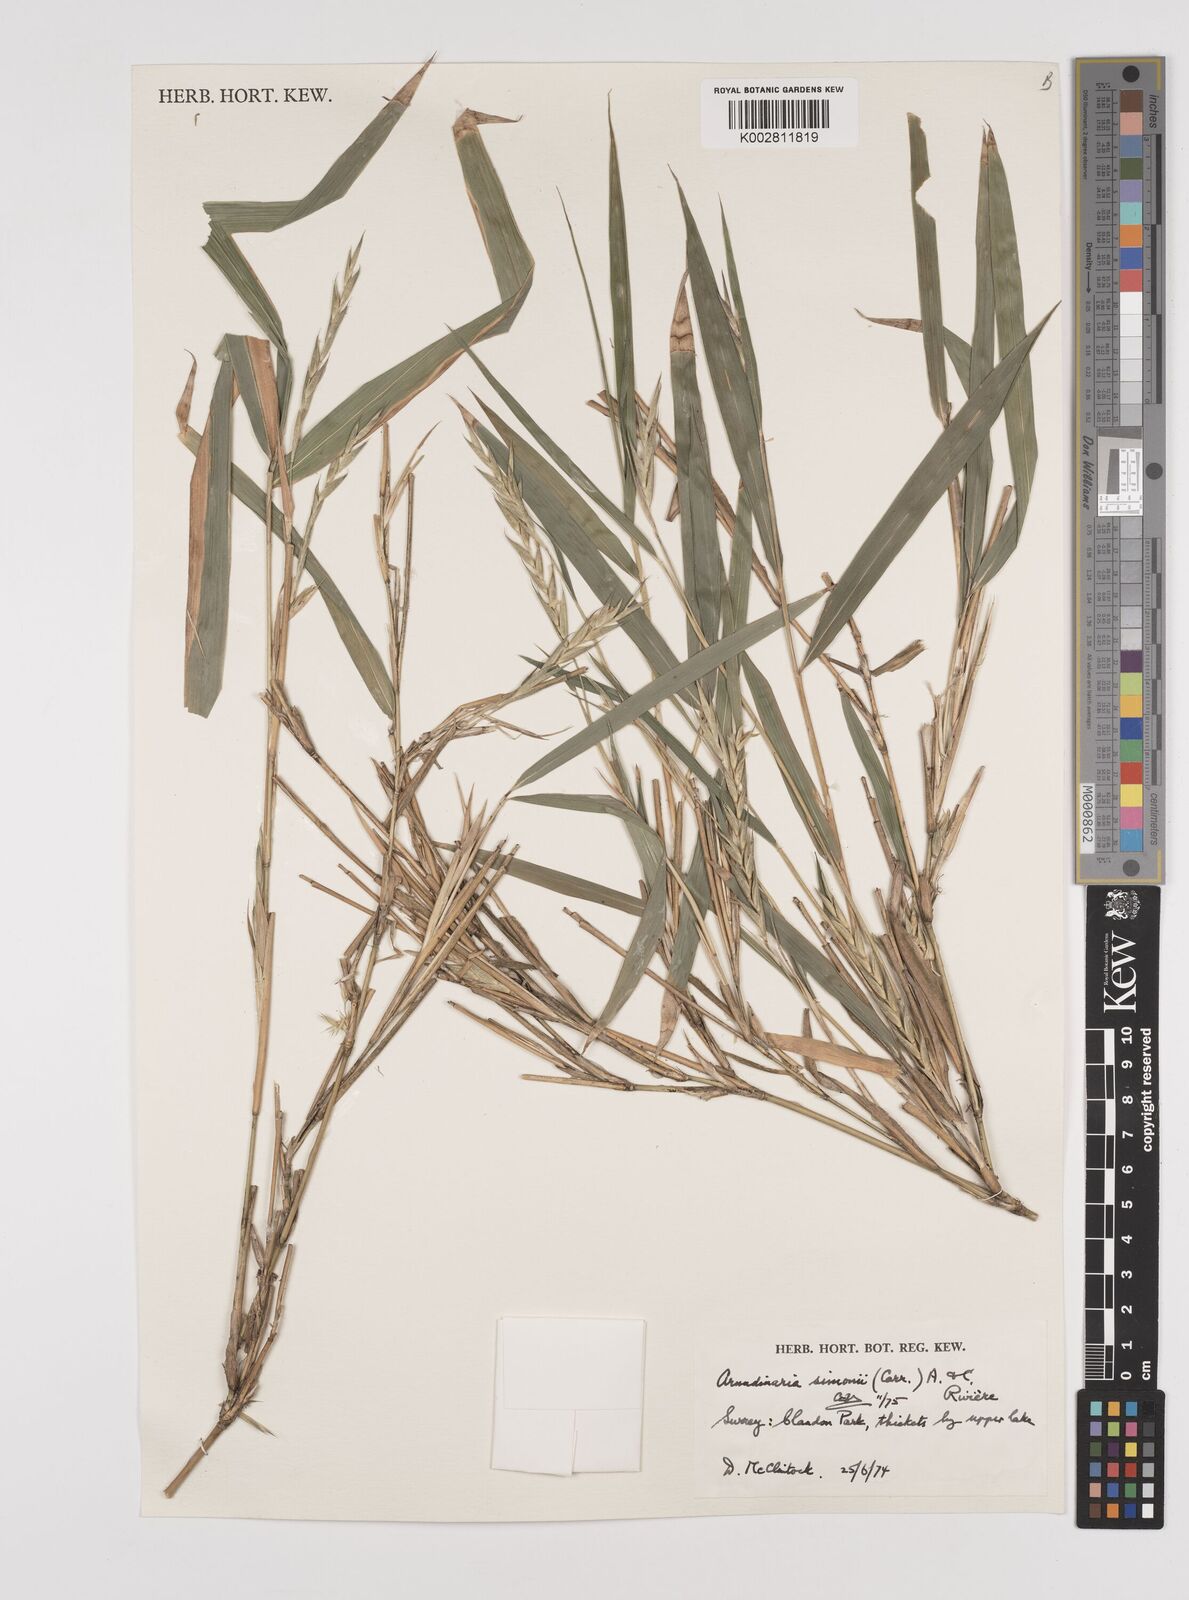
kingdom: Plantae
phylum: Tracheophyta
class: Liliopsida
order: Poales
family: Poaceae
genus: Pleioblastus
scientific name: Pleioblastus simonii
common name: Simon bamboo
